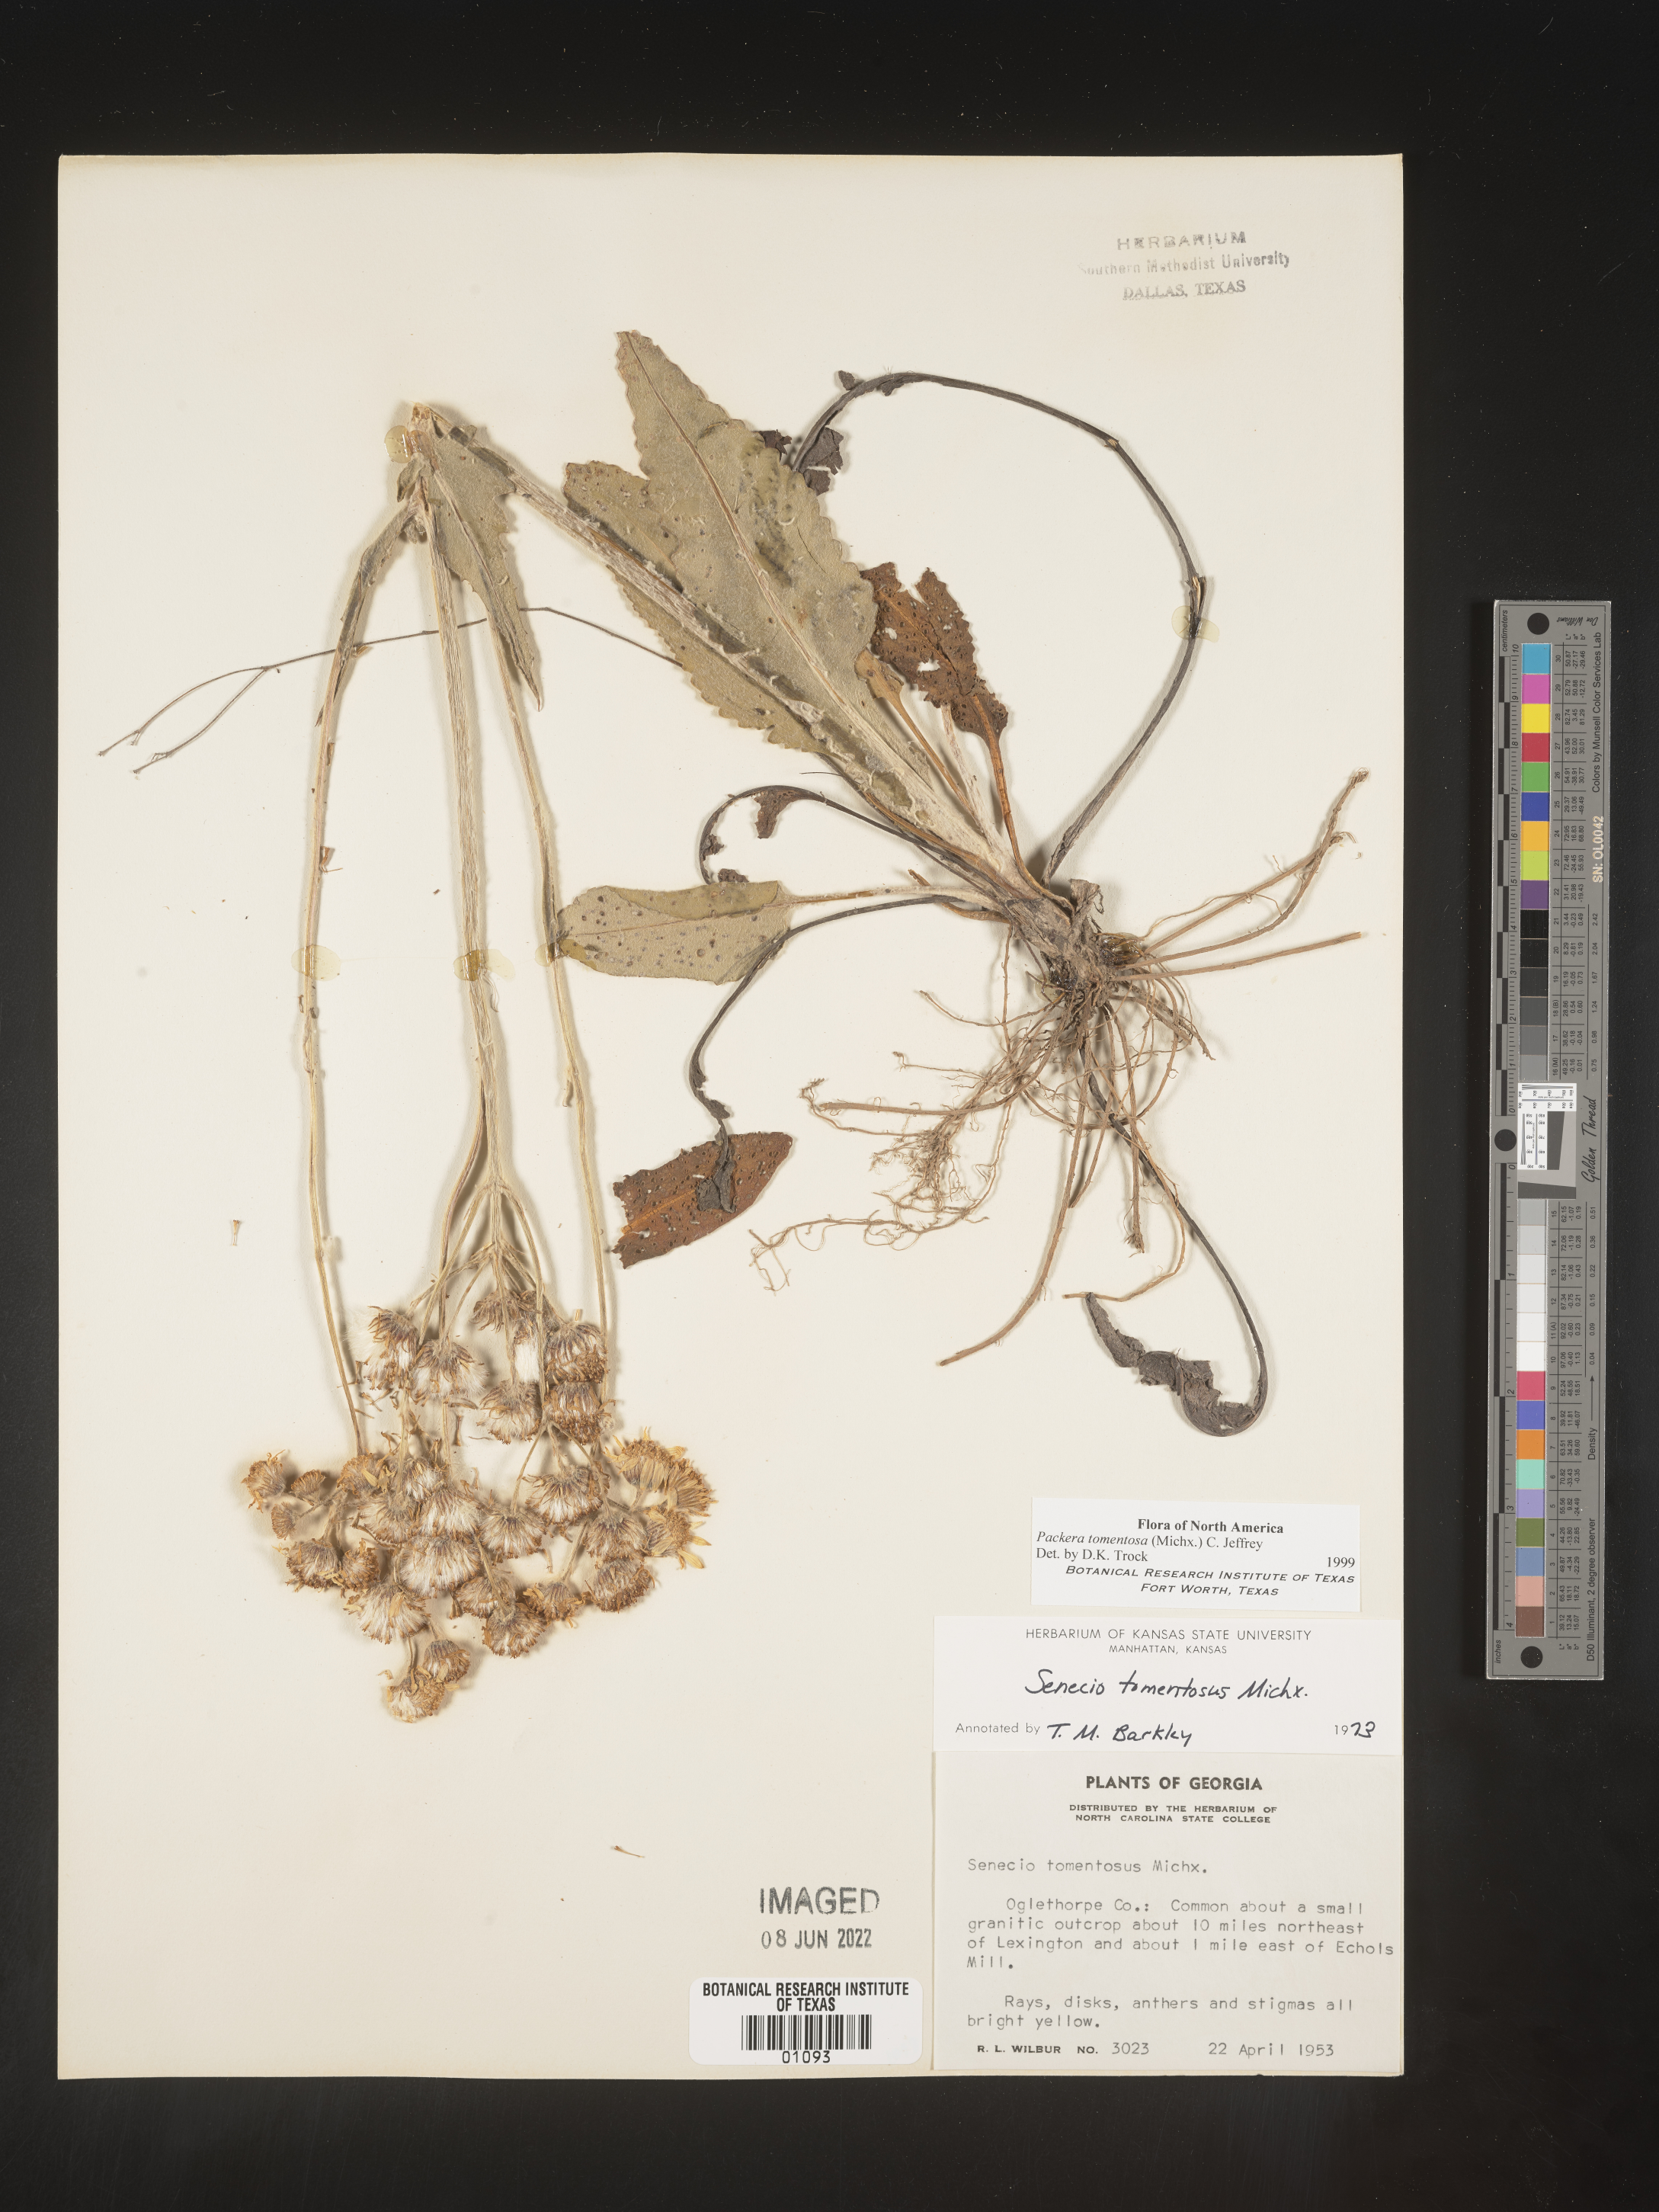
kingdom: Plantae
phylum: Tracheophyta
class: Magnoliopsida
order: Asterales
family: Asteraceae
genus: Packera
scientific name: Packera dubia
